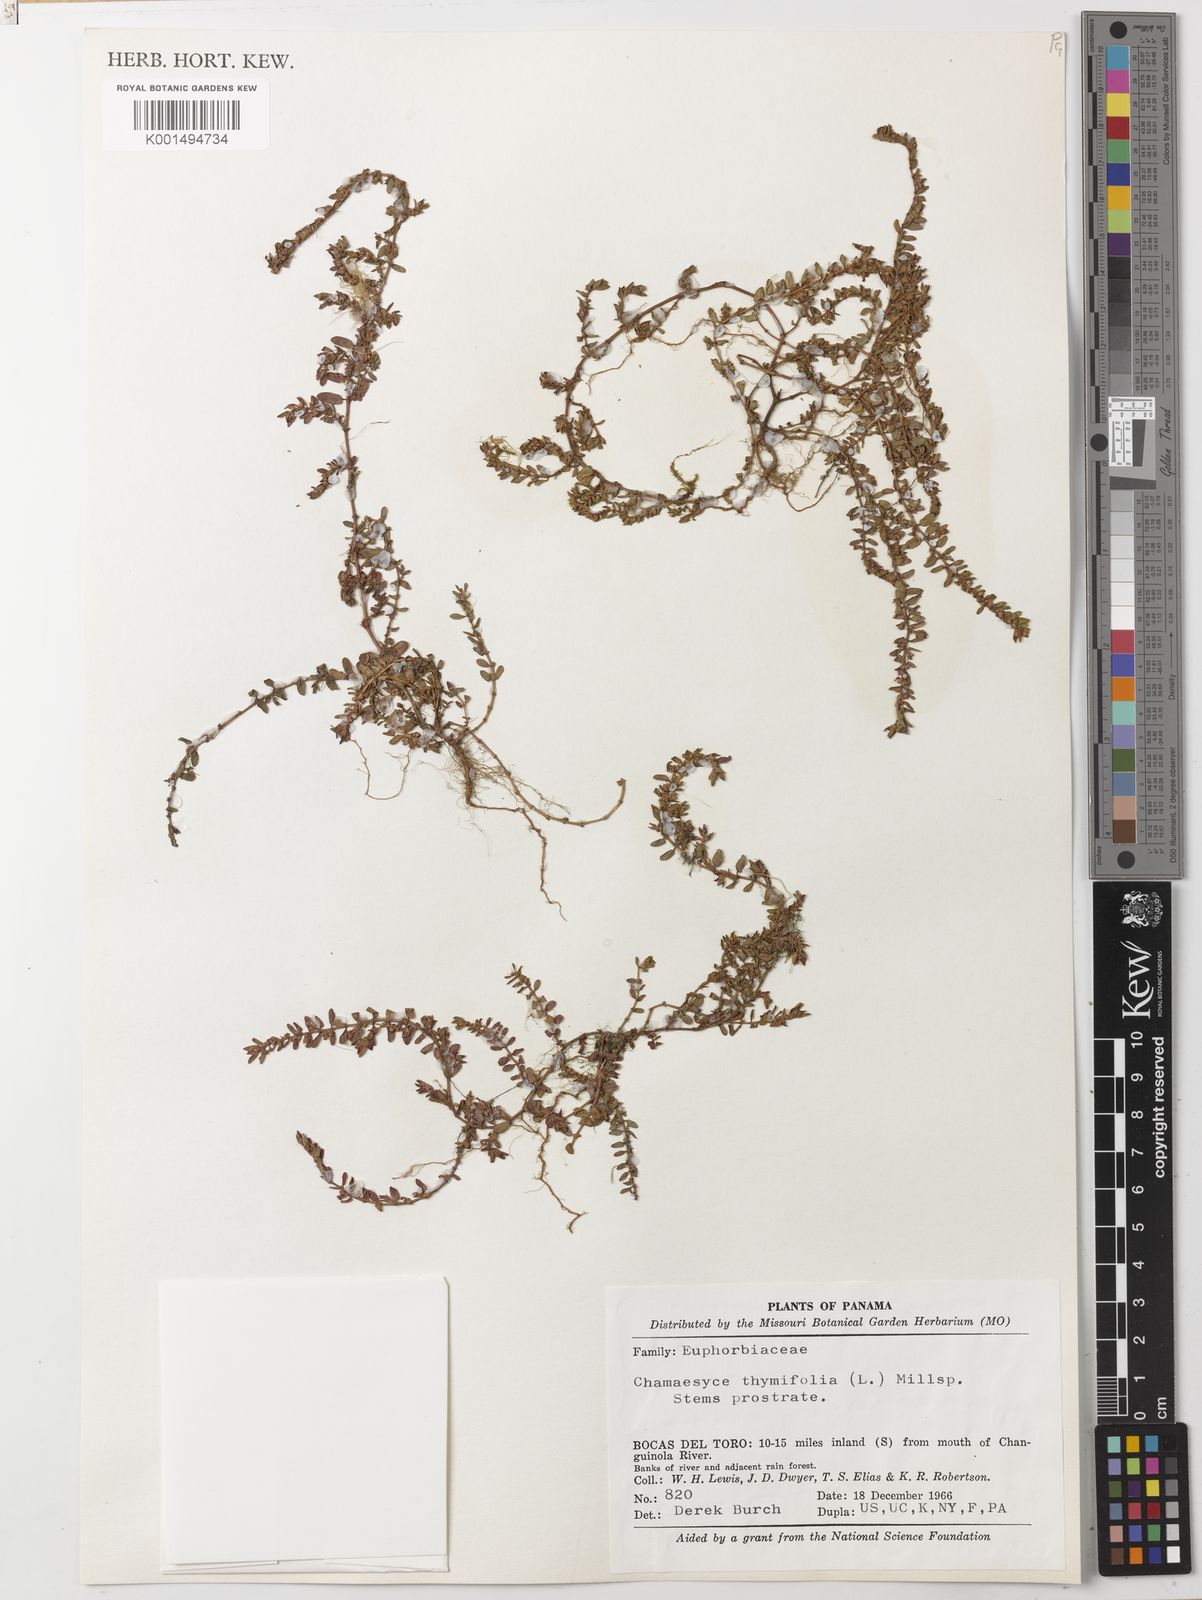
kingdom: Plantae
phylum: Tracheophyta
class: Magnoliopsida
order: Malpighiales
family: Euphorbiaceae
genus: Euphorbia
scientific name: Euphorbia thymifolia
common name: Gulf sandmat
